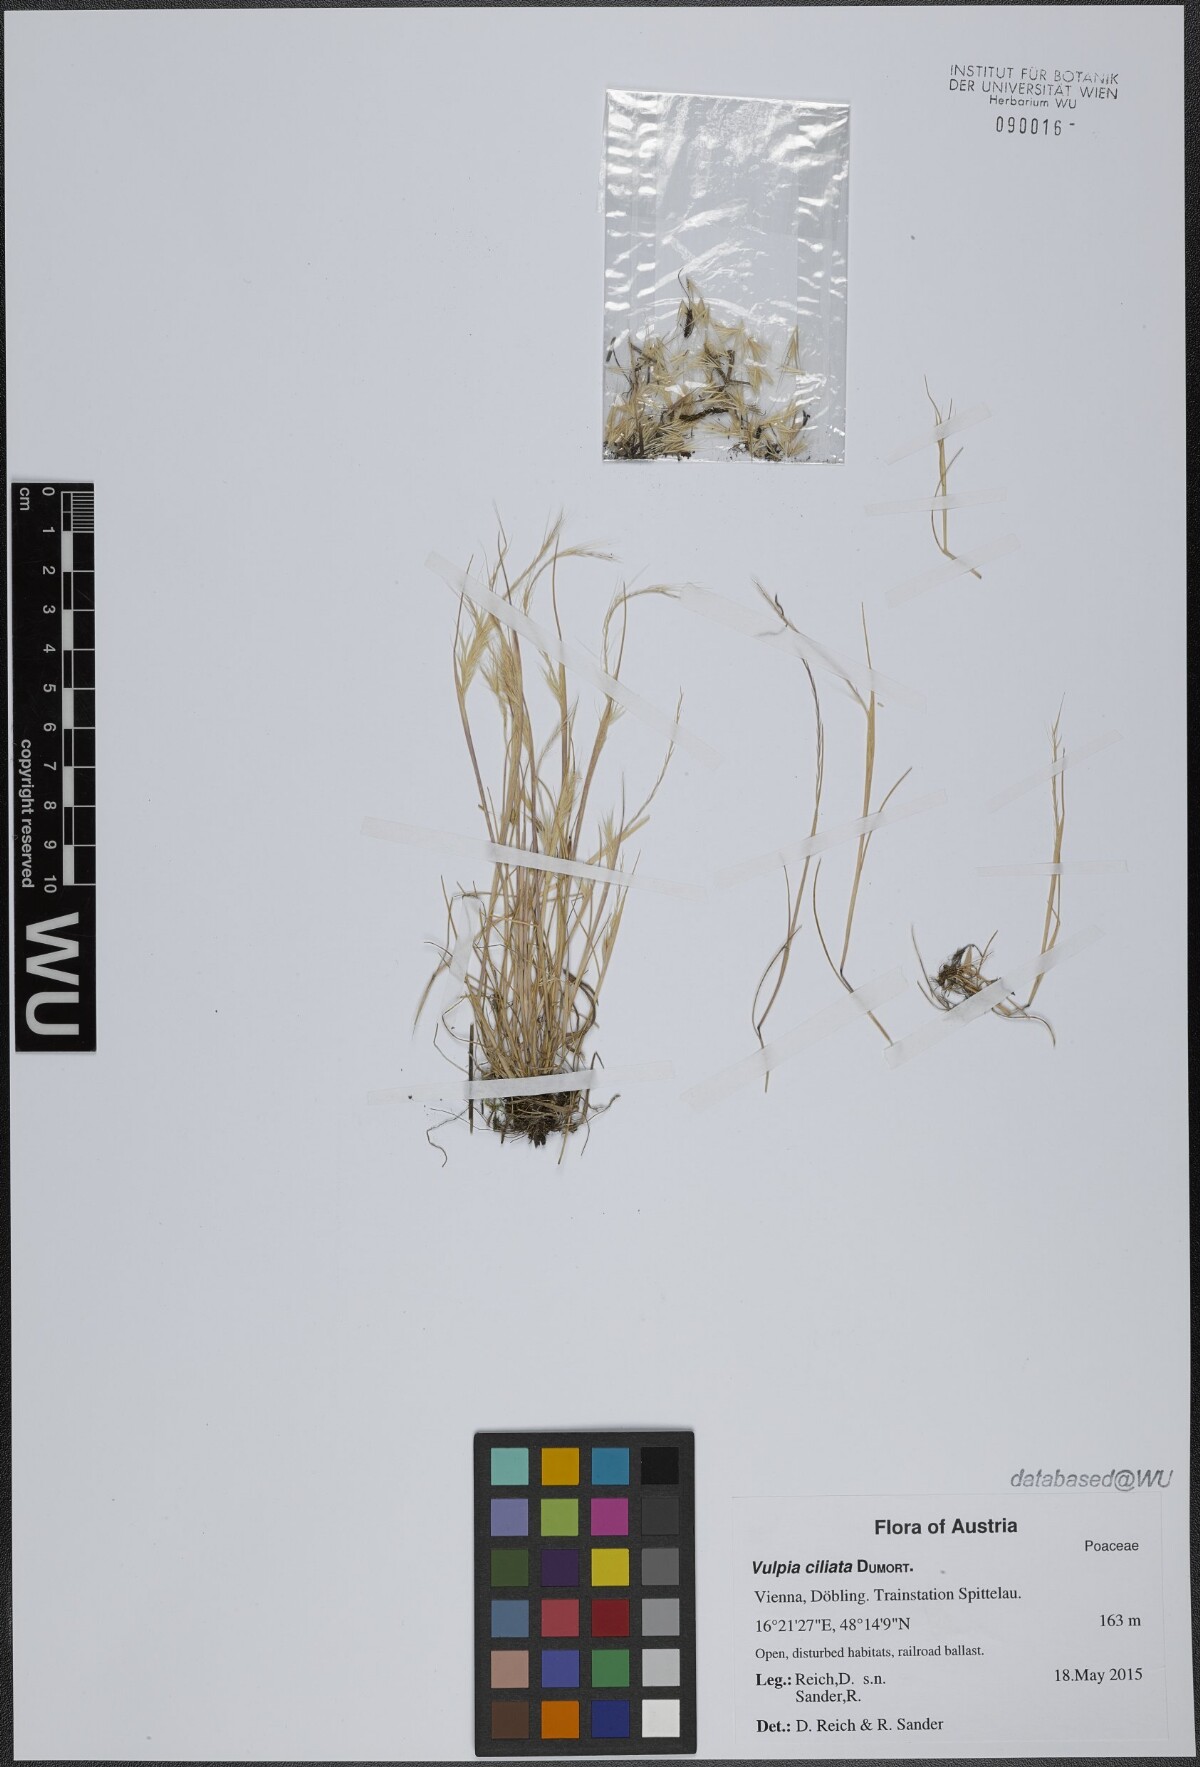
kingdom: Plantae
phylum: Tracheophyta
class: Liliopsida
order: Poales
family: Poaceae
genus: Festuca
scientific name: Festuca ambigua
